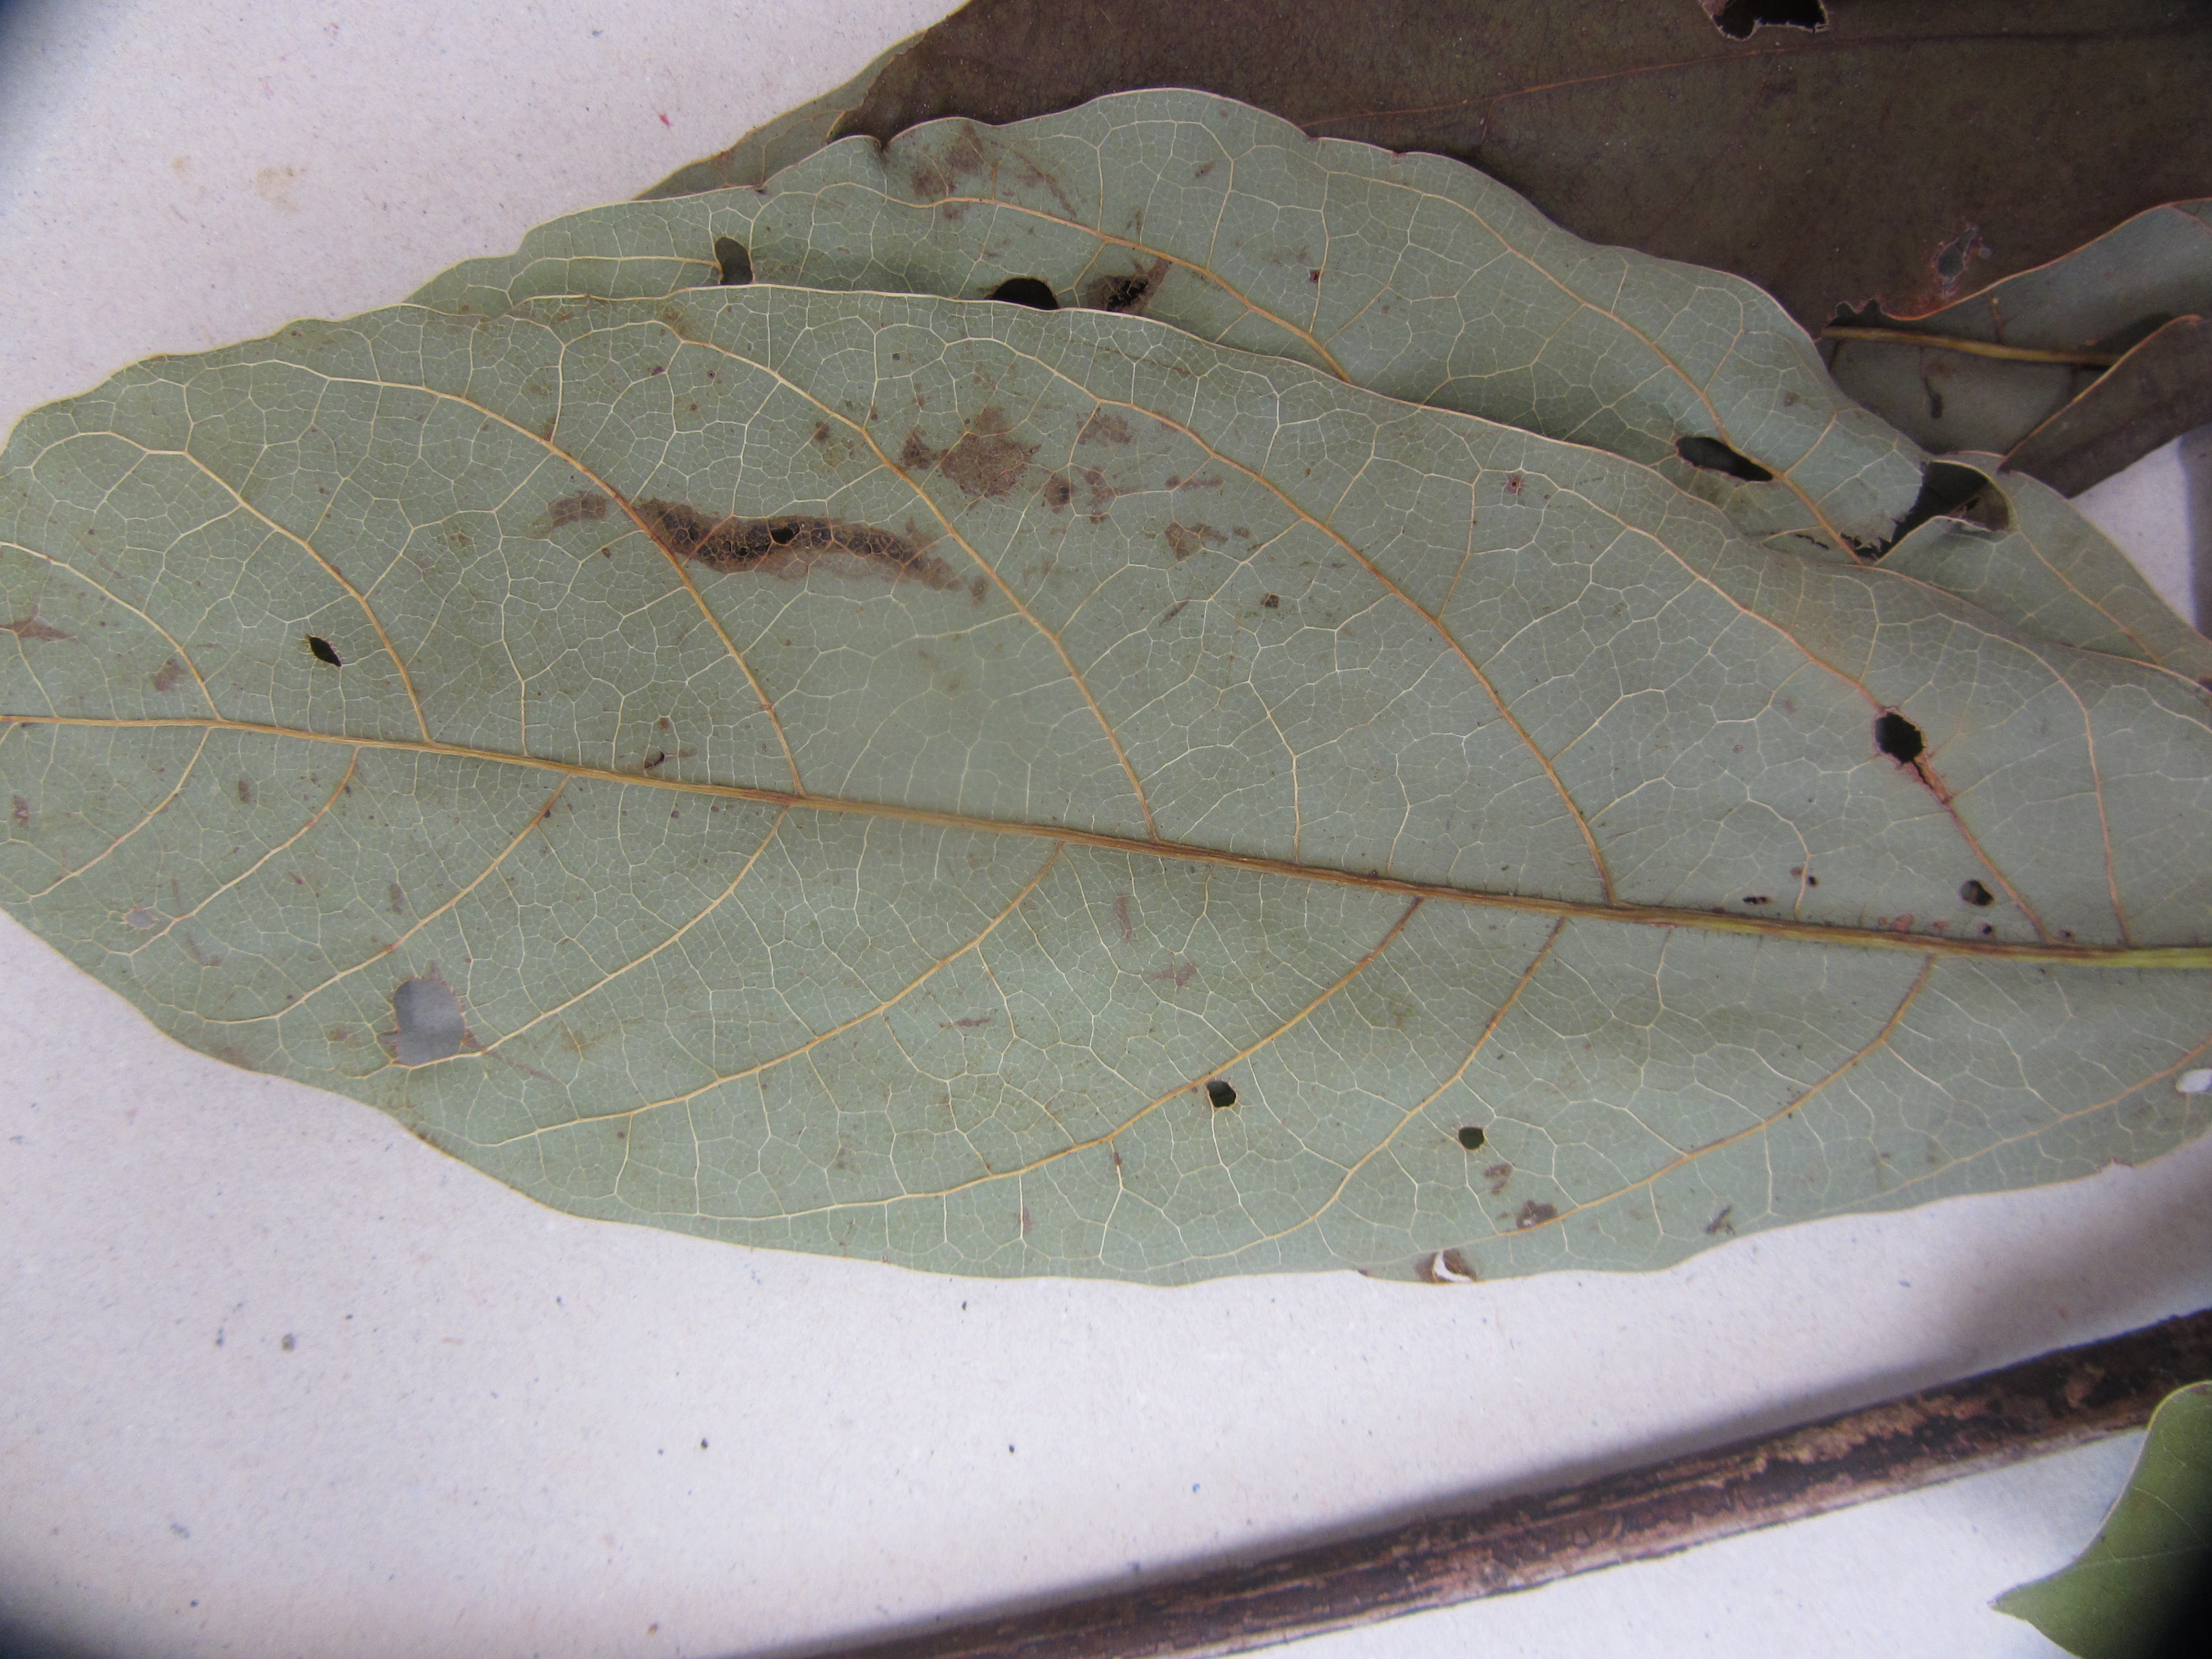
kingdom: Plantae
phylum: Tracheophyta
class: Magnoliopsida
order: Laurales
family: Lauraceae
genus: Persea
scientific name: Persea americana
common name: Avocado
